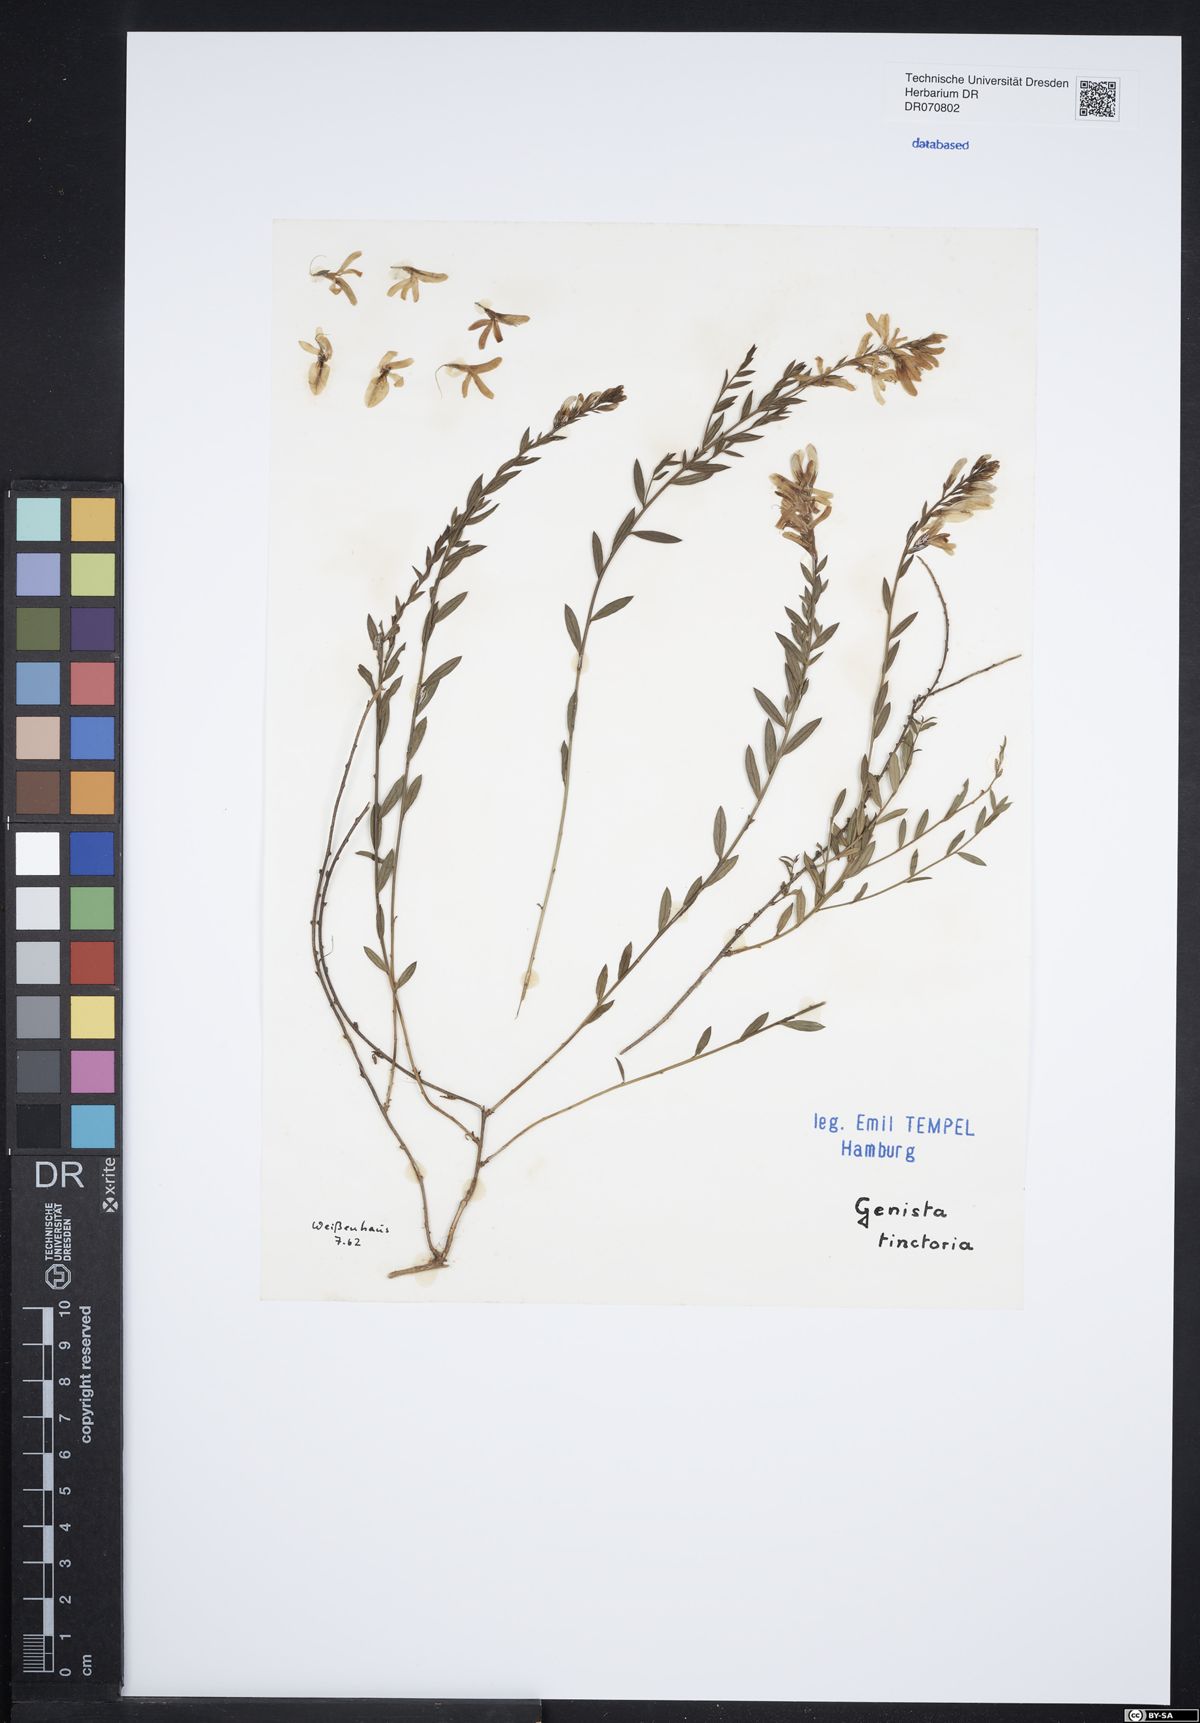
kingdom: Plantae
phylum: Tracheophyta
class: Magnoliopsida
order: Fabales
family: Fabaceae
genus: Genista
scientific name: Genista tinctoria
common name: Dyer's greenweed
